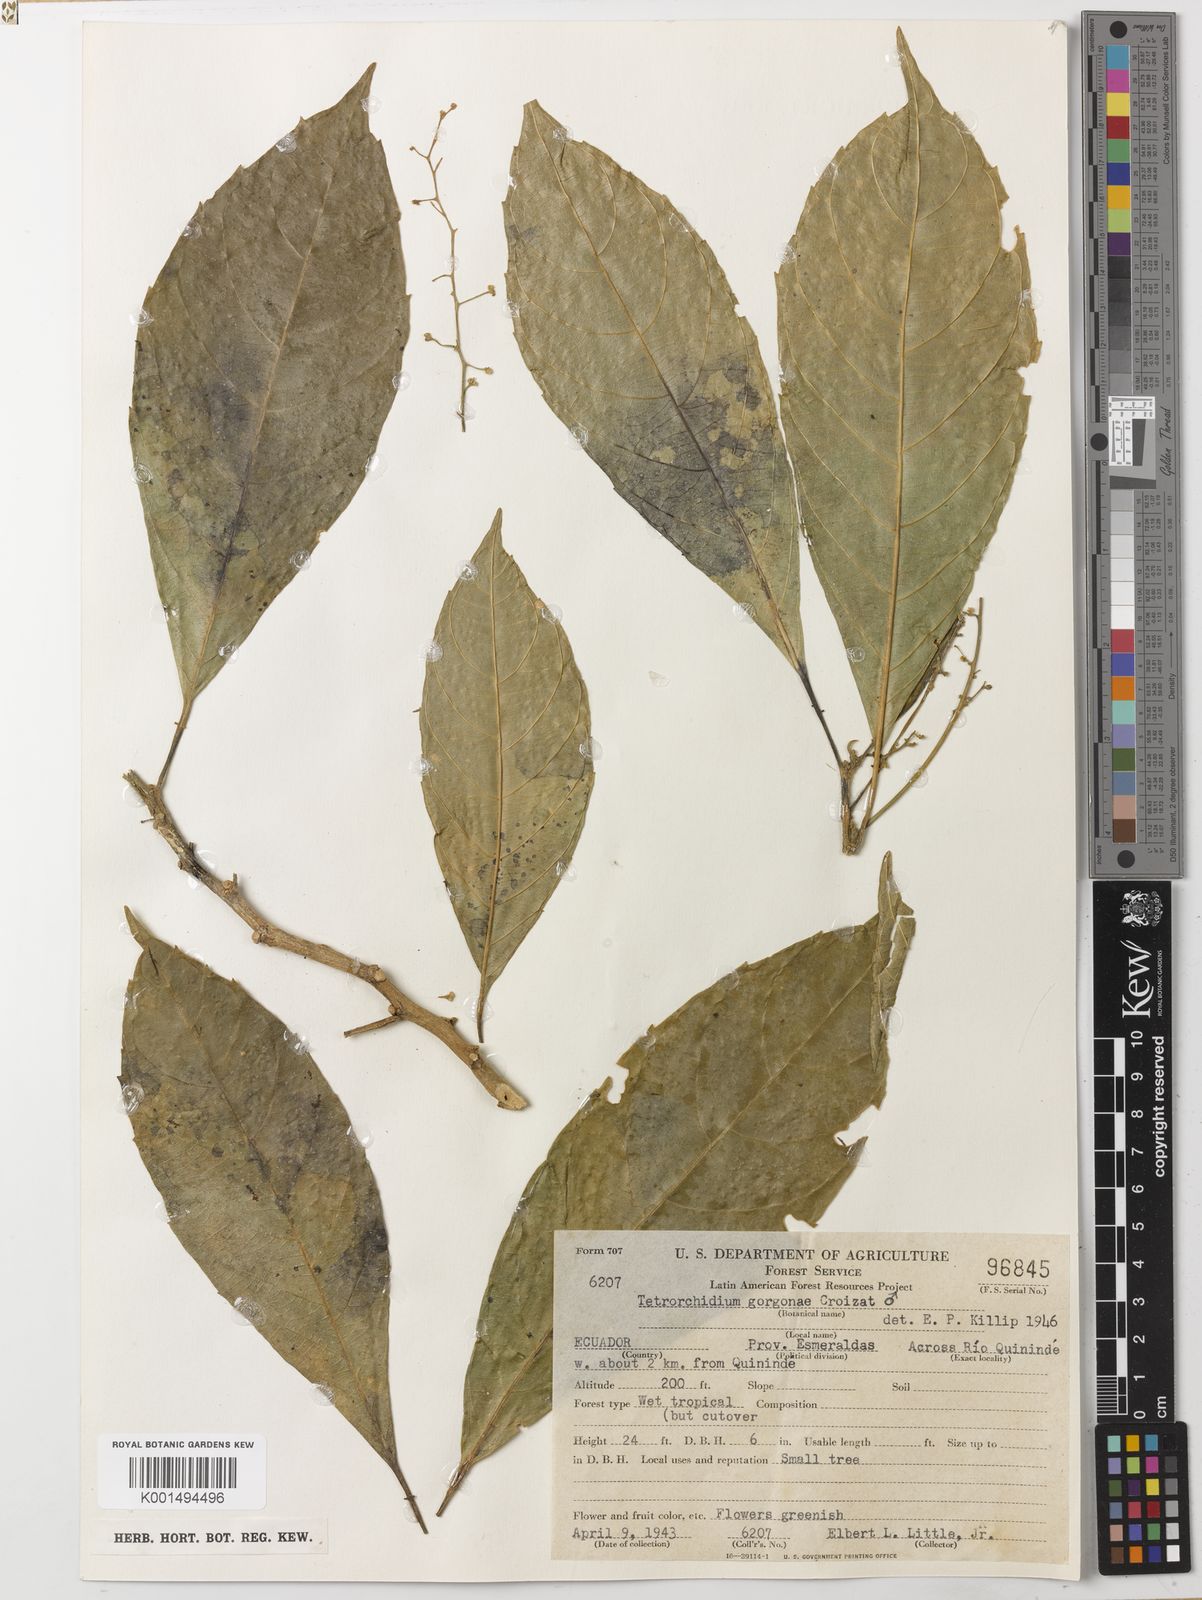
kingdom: Plantae
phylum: Tracheophyta
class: Magnoliopsida
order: Malpighiales
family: Euphorbiaceae
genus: Tetrorchidium
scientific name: Tetrorchidium andinum
